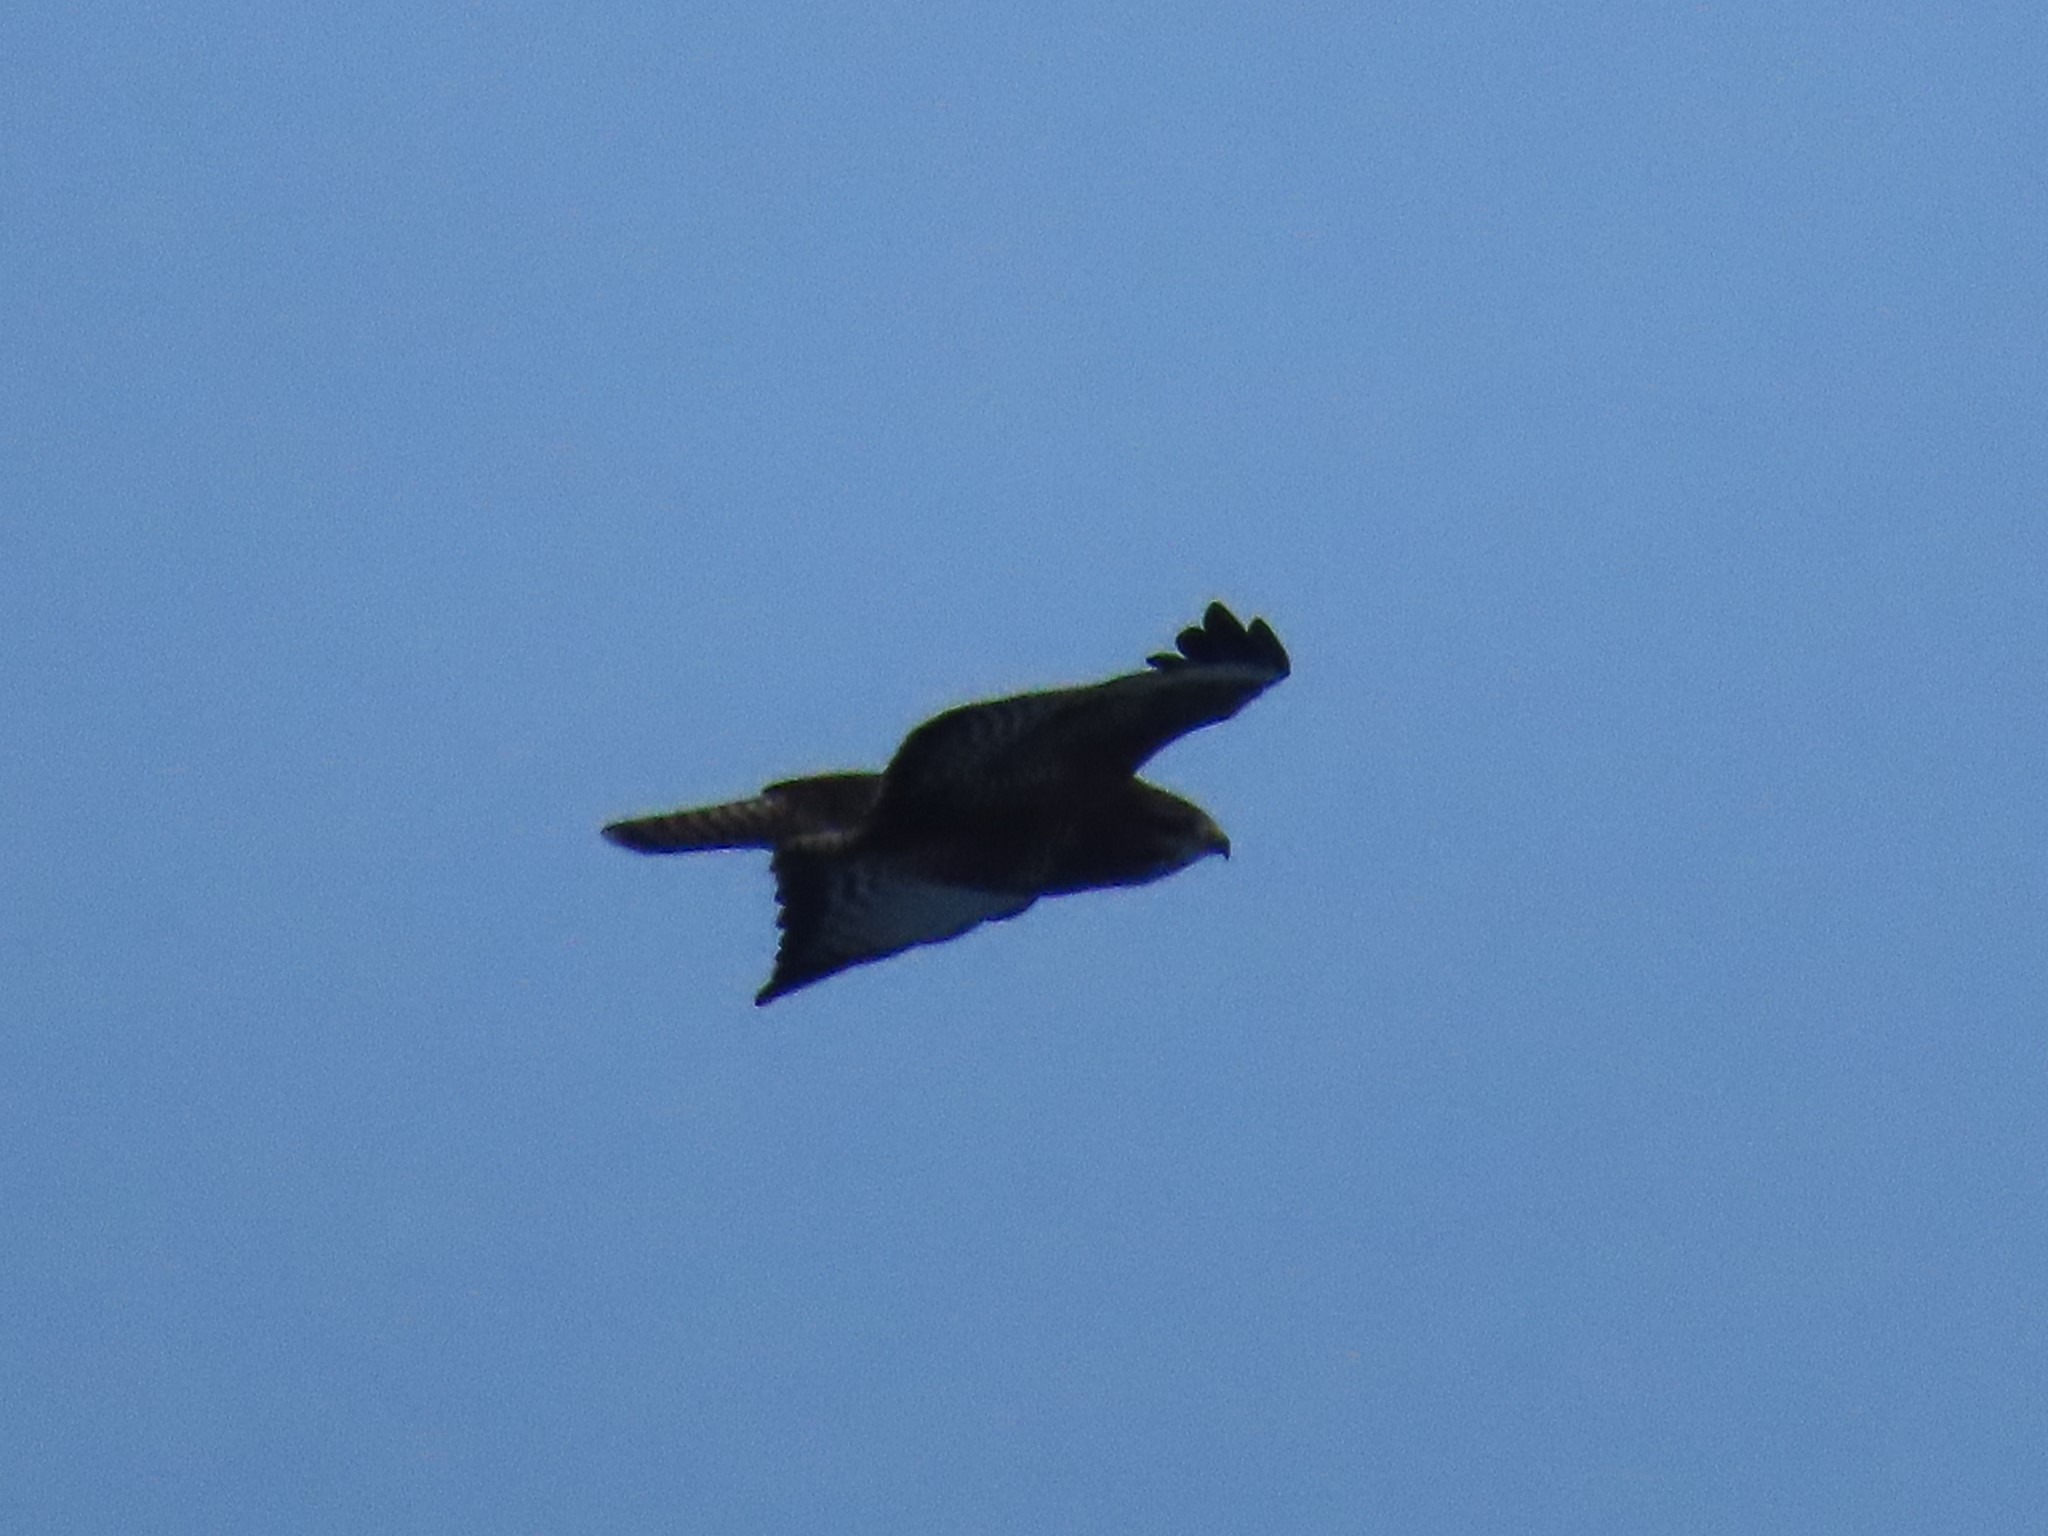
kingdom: Animalia
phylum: Chordata
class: Aves
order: Accipitriformes
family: Accipitridae
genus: Buteo
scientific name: Buteo buteo
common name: Musvåge
